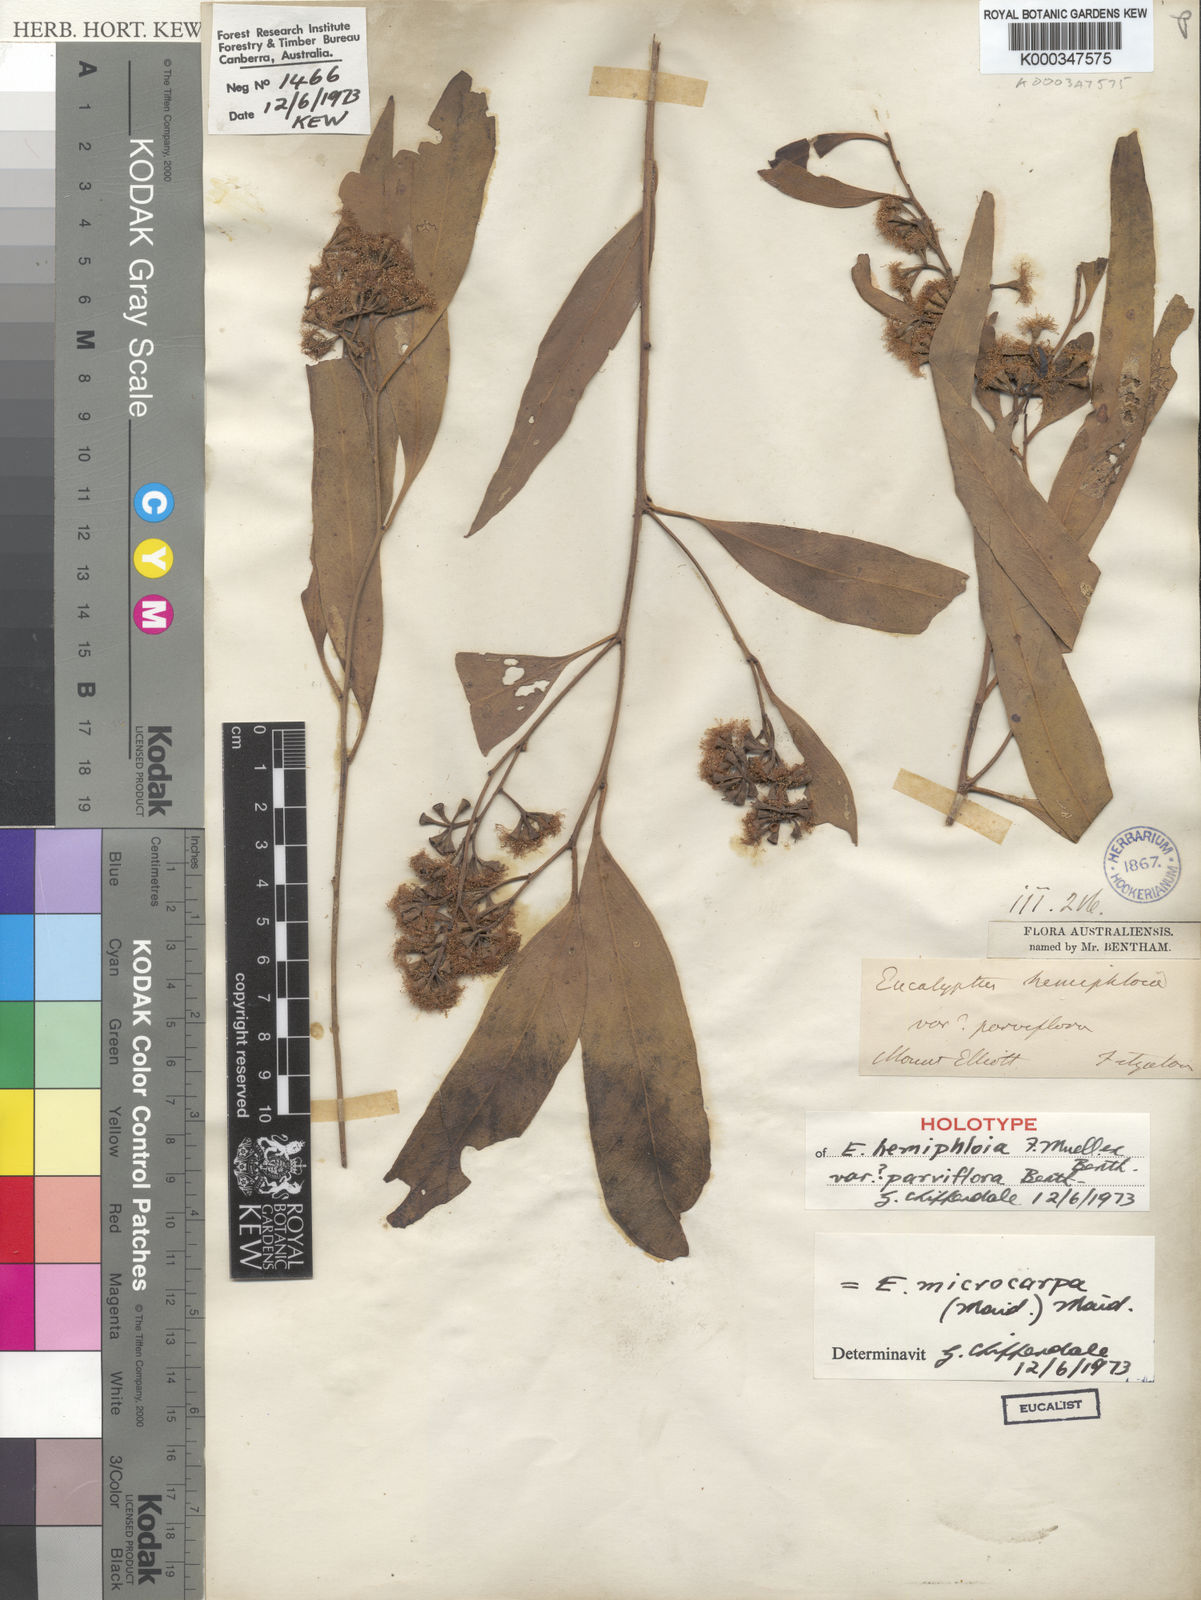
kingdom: Plantae
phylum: Tracheophyta
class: Magnoliopsida
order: Myrtales
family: Myrtaceae
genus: Eucalyptus
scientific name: Eucalyptus moluccana
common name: Grey-box
